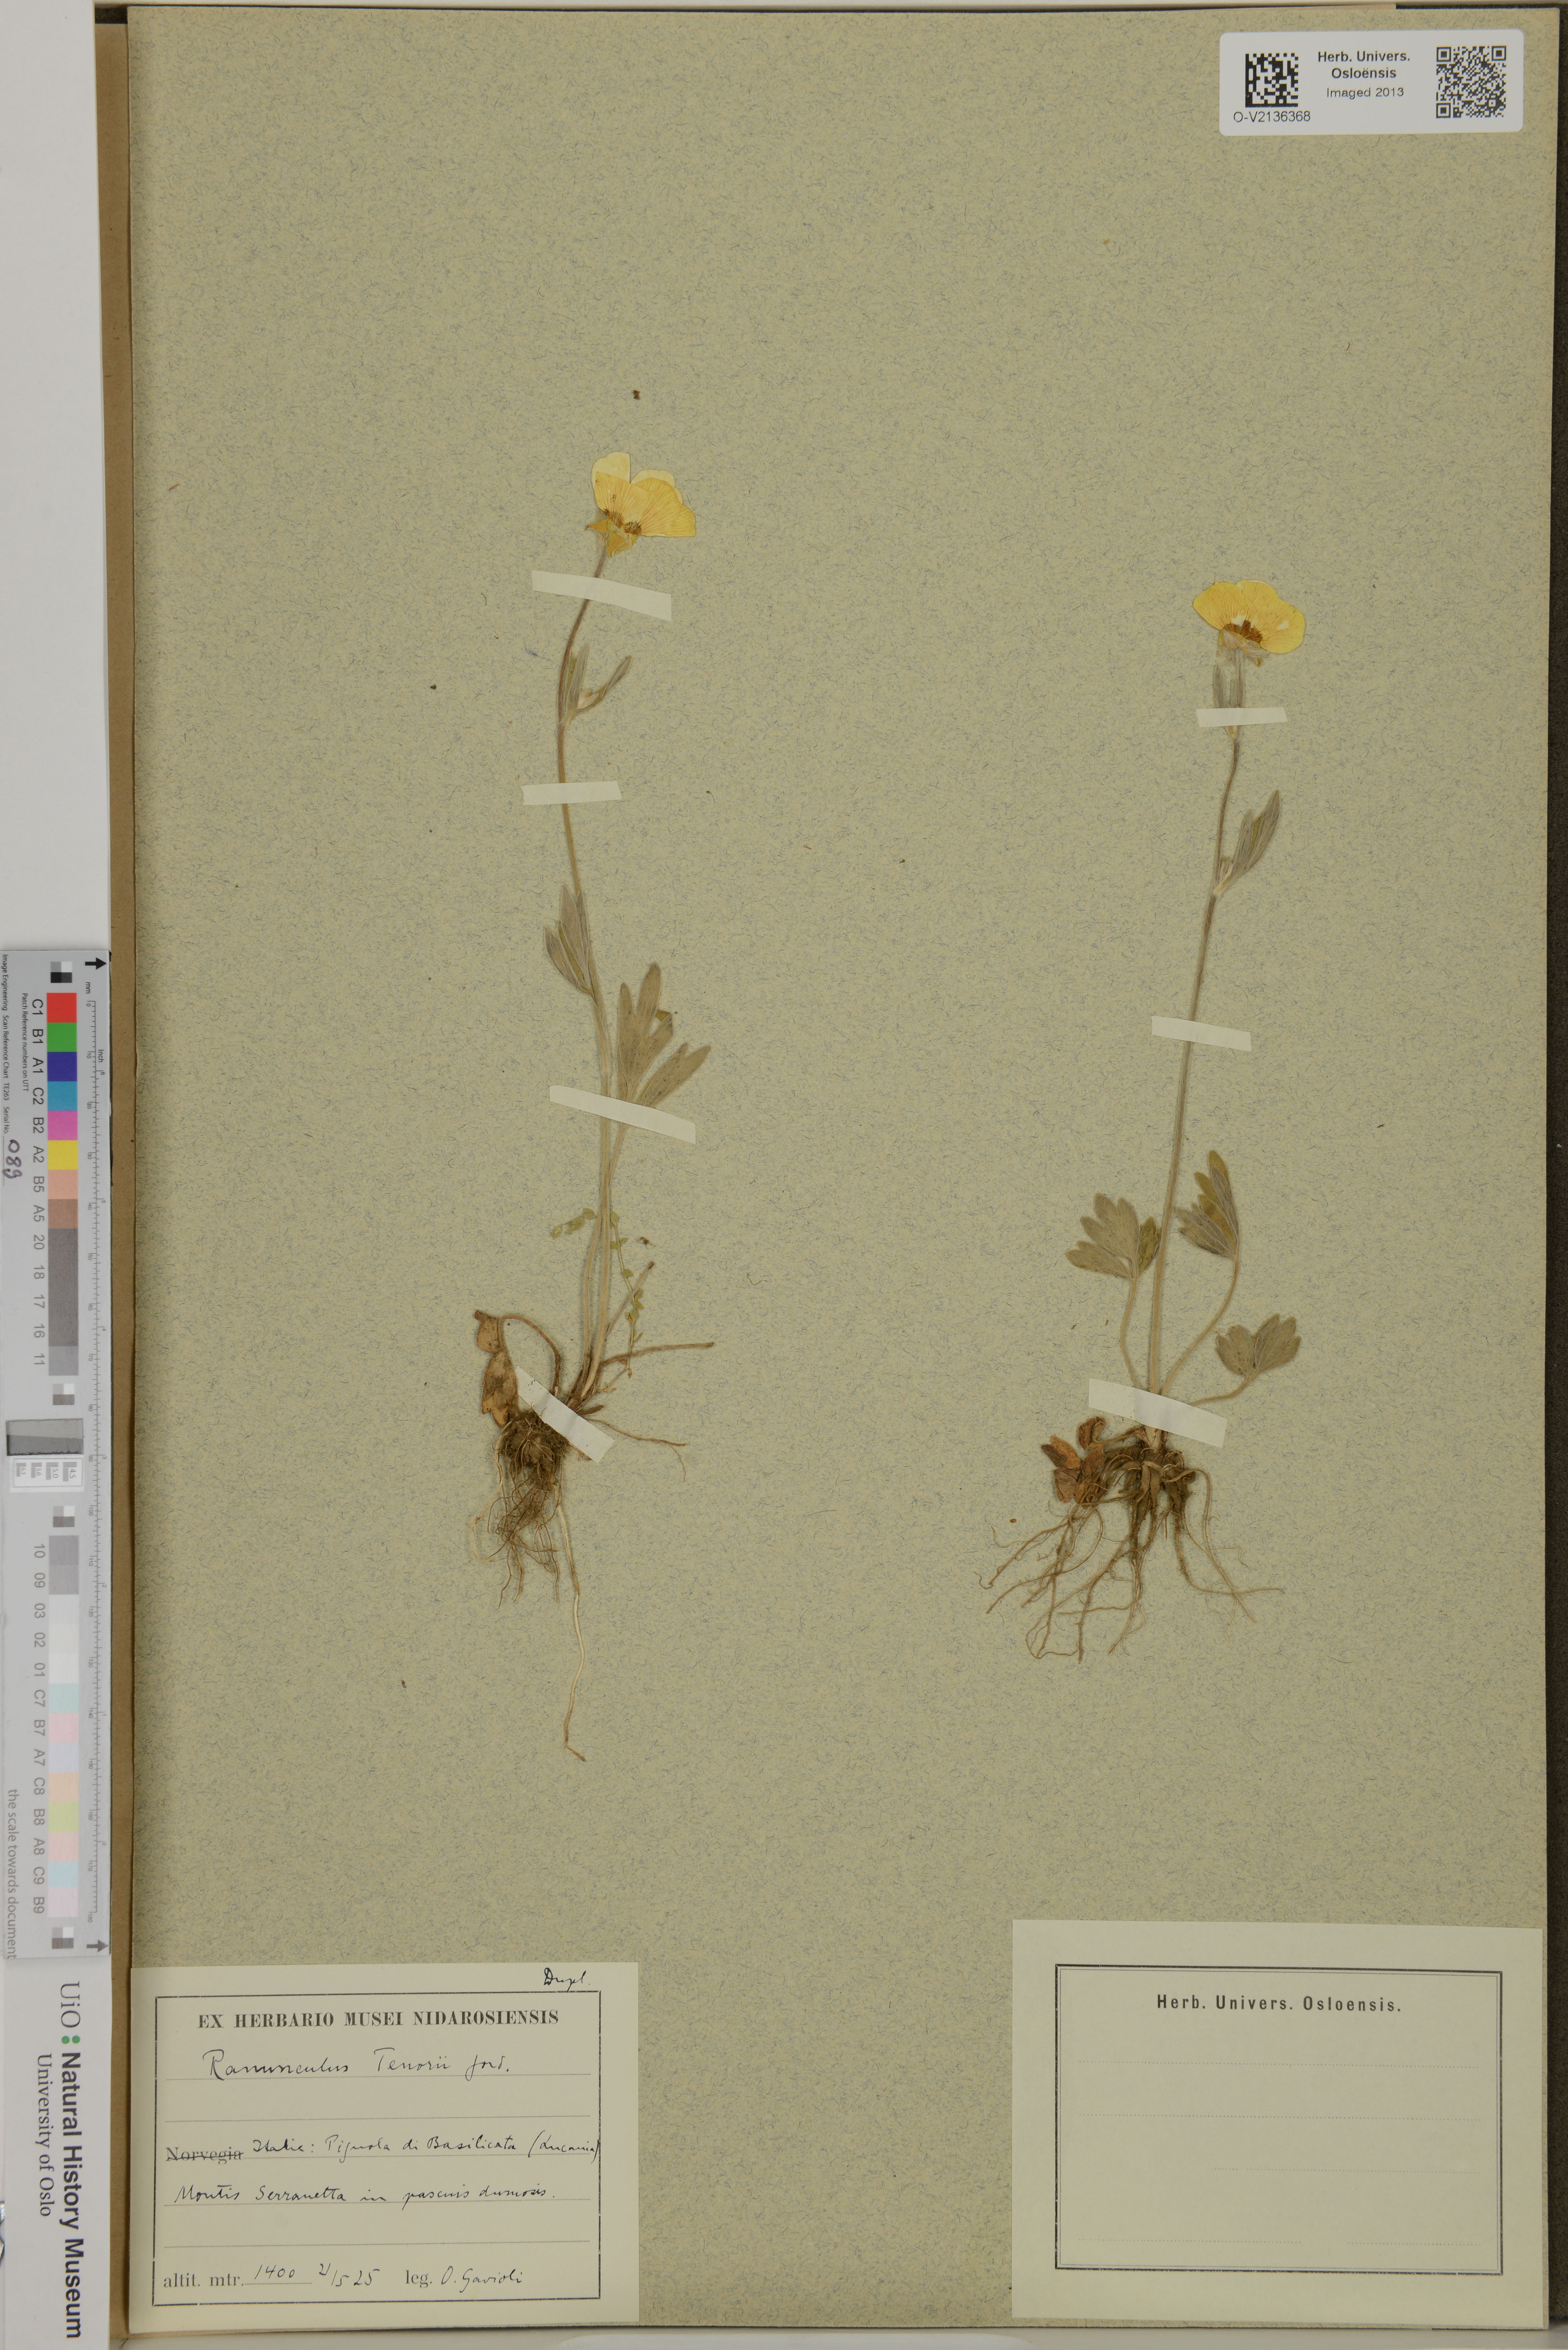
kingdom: Plantae
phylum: Tracheophyta
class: Magnoliopsida
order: Ranunculales
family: Ranunculaceae
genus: Ranunculus
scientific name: Ranunculus illyricus
